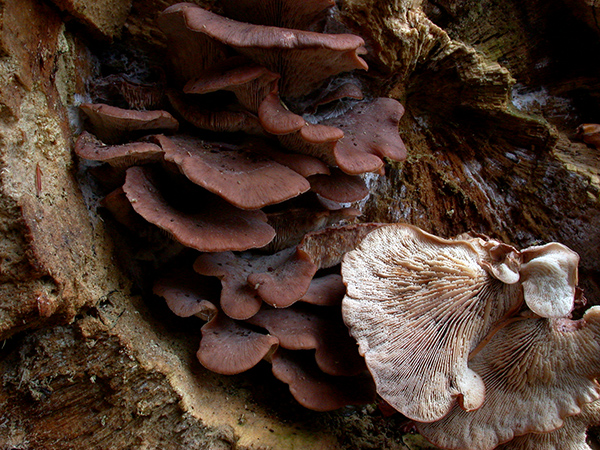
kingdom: Fungi
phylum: Basidiomycota
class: Agaricomycetes
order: Russulales
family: Auriscalpiaceae
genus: Lentinellus
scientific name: Lentinellus ursinus
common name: børstehåret savbladhat
